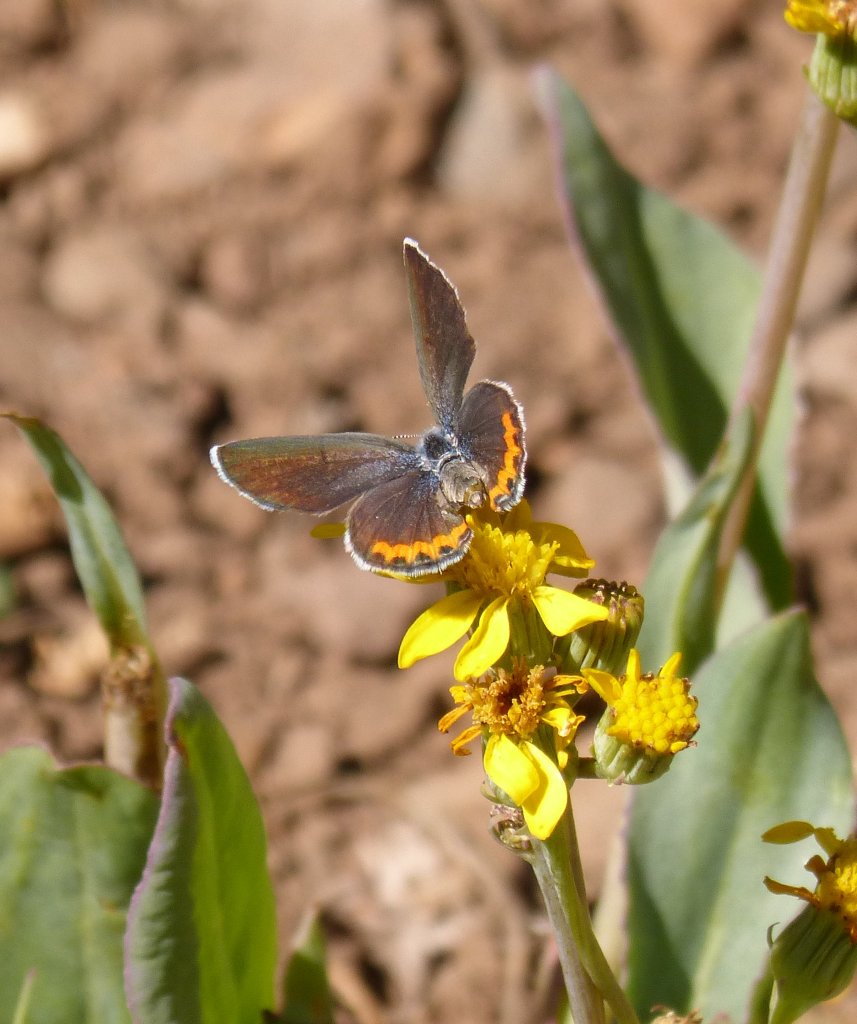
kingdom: Animalia
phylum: Arthropoda
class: Insecta
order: Lepidoptera
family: Lycaenidae
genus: Plebejus
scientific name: Plebejus acmon
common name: Acmon Blue
